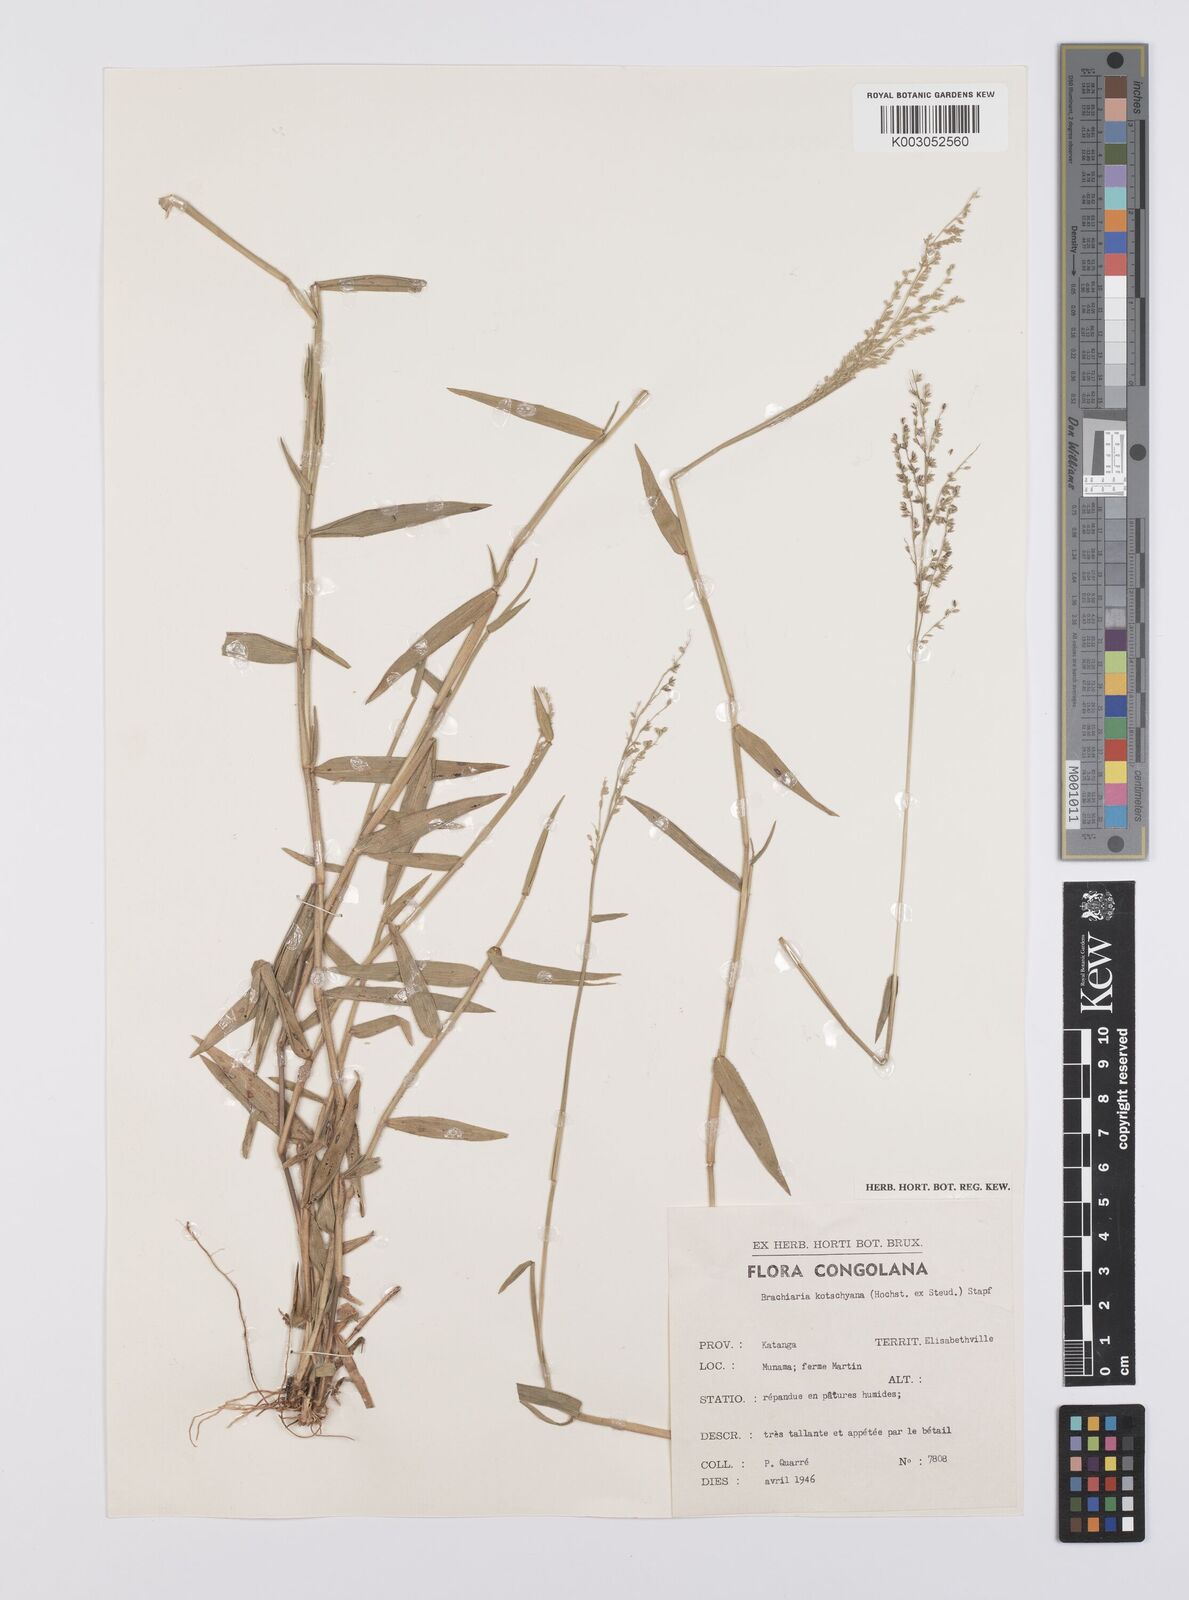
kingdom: Plantae
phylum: Tracheophyta
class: Liliopsida
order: Poales
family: Poaceae
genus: Urochloa
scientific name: Urochloa comata
